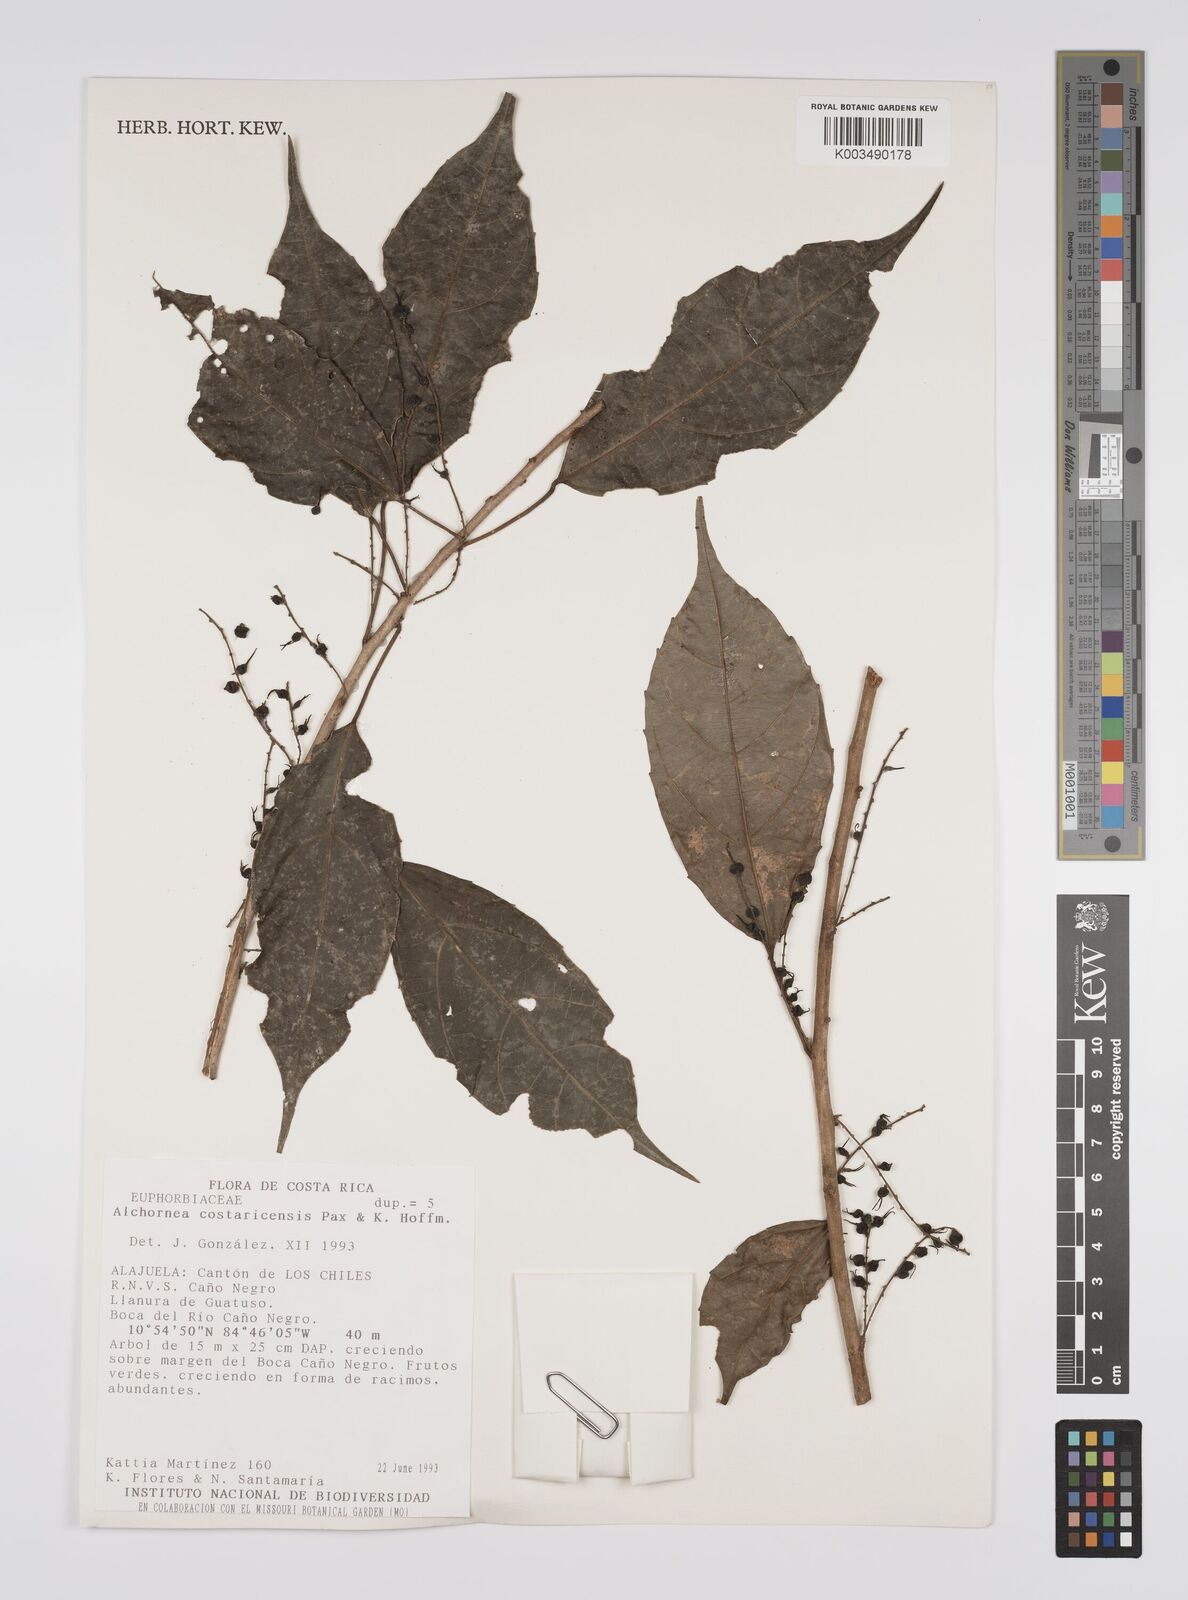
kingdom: Plantae
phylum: Tracheophyta
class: Magnoliopsida
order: Malpighiales
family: Euphorbiaceae
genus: Alchornea
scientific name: Alchornea costaricensis
